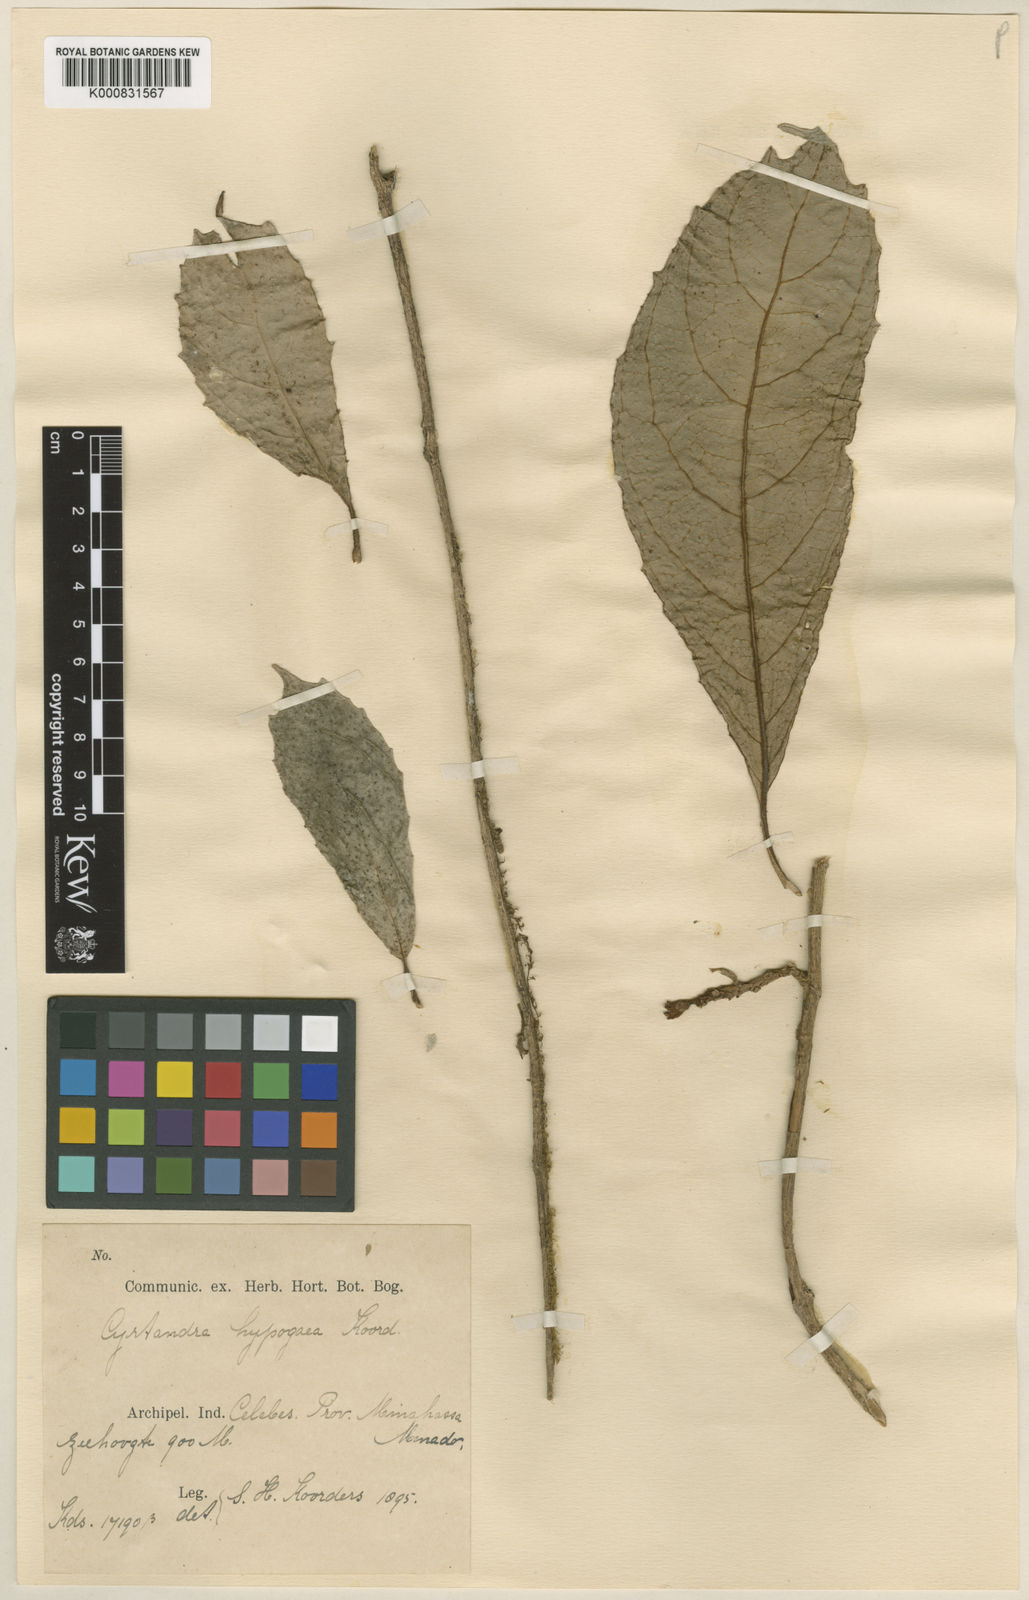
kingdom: Plantae
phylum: Tracheophyta
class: Magnoliopsida
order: Lamiales
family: Gesneriaceae
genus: Cyrtandra
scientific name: Cyrtandra hypogaea
